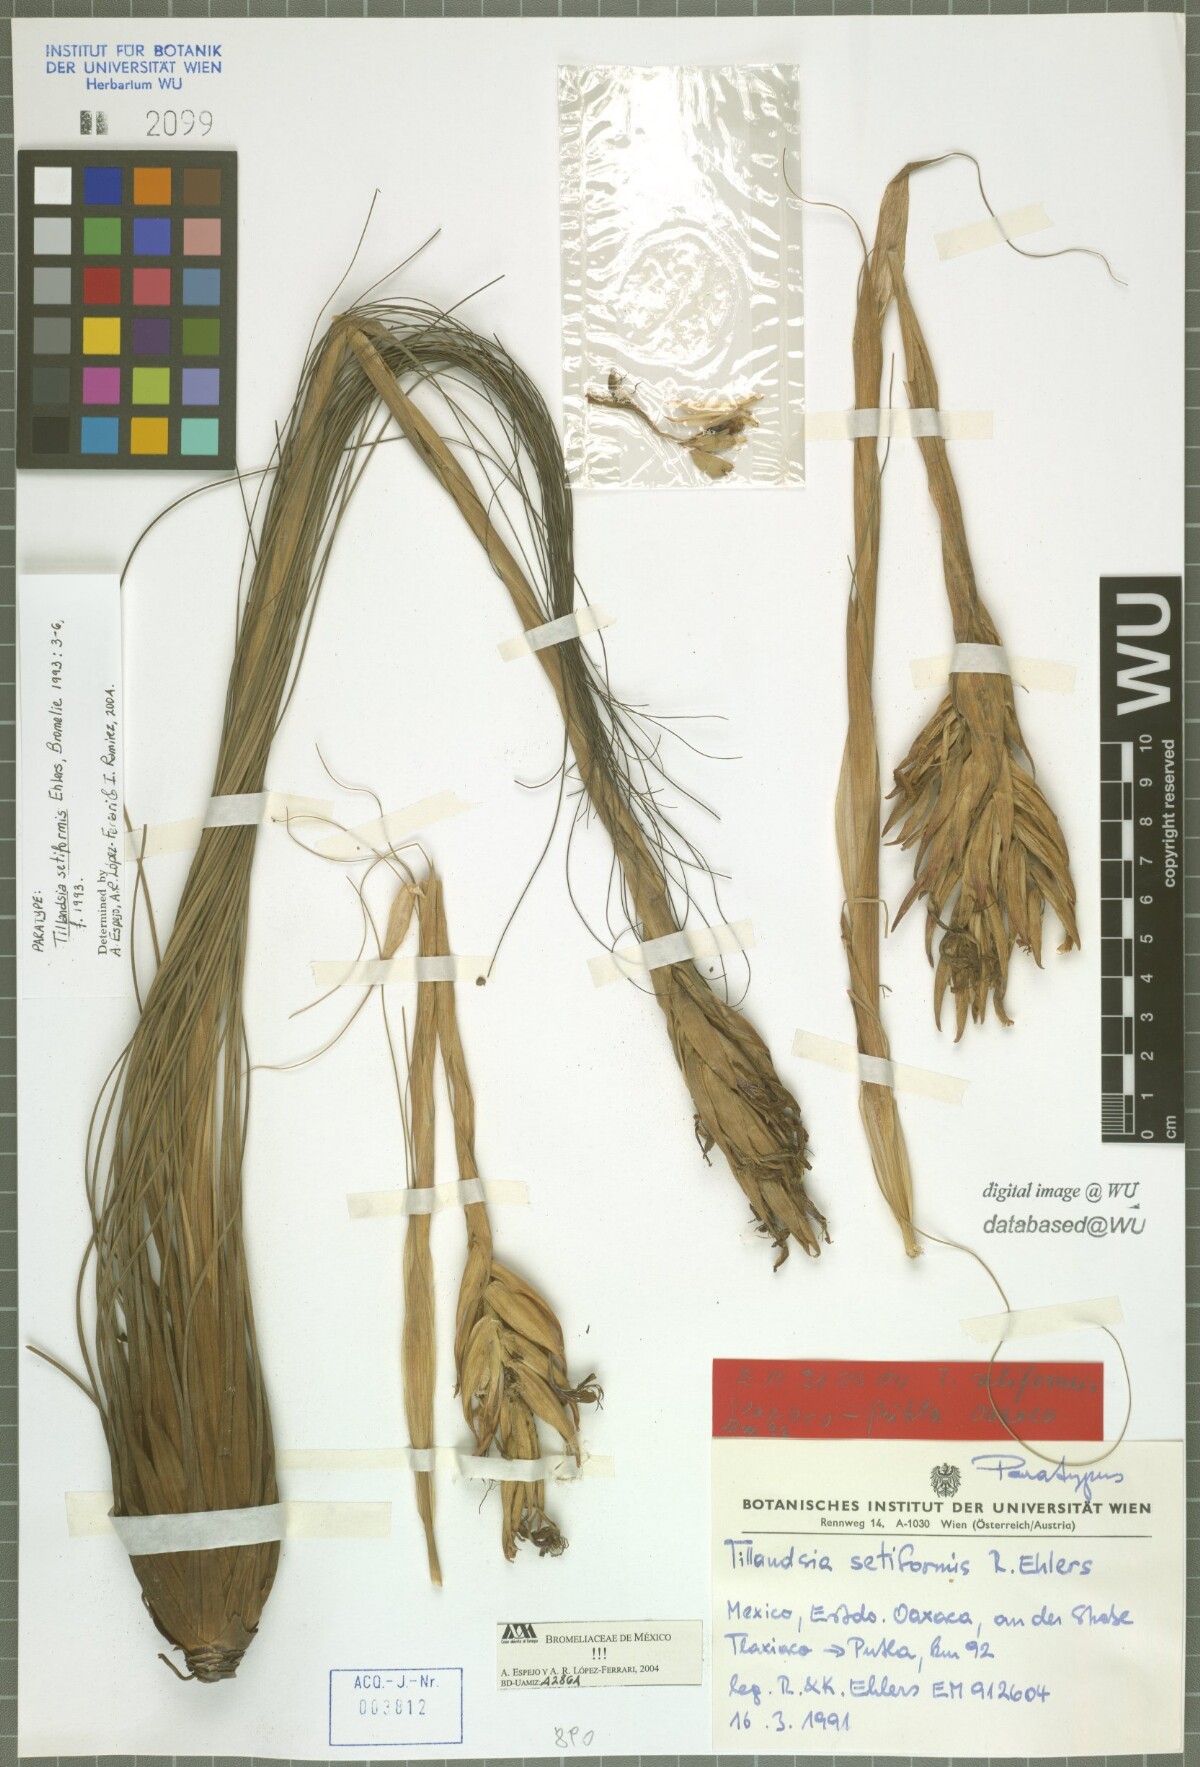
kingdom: Plantae
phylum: Tracheophyta
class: Liliopsida
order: Poales
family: Bromeliaceae
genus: Tillandsia
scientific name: Tillandsia setiformis
